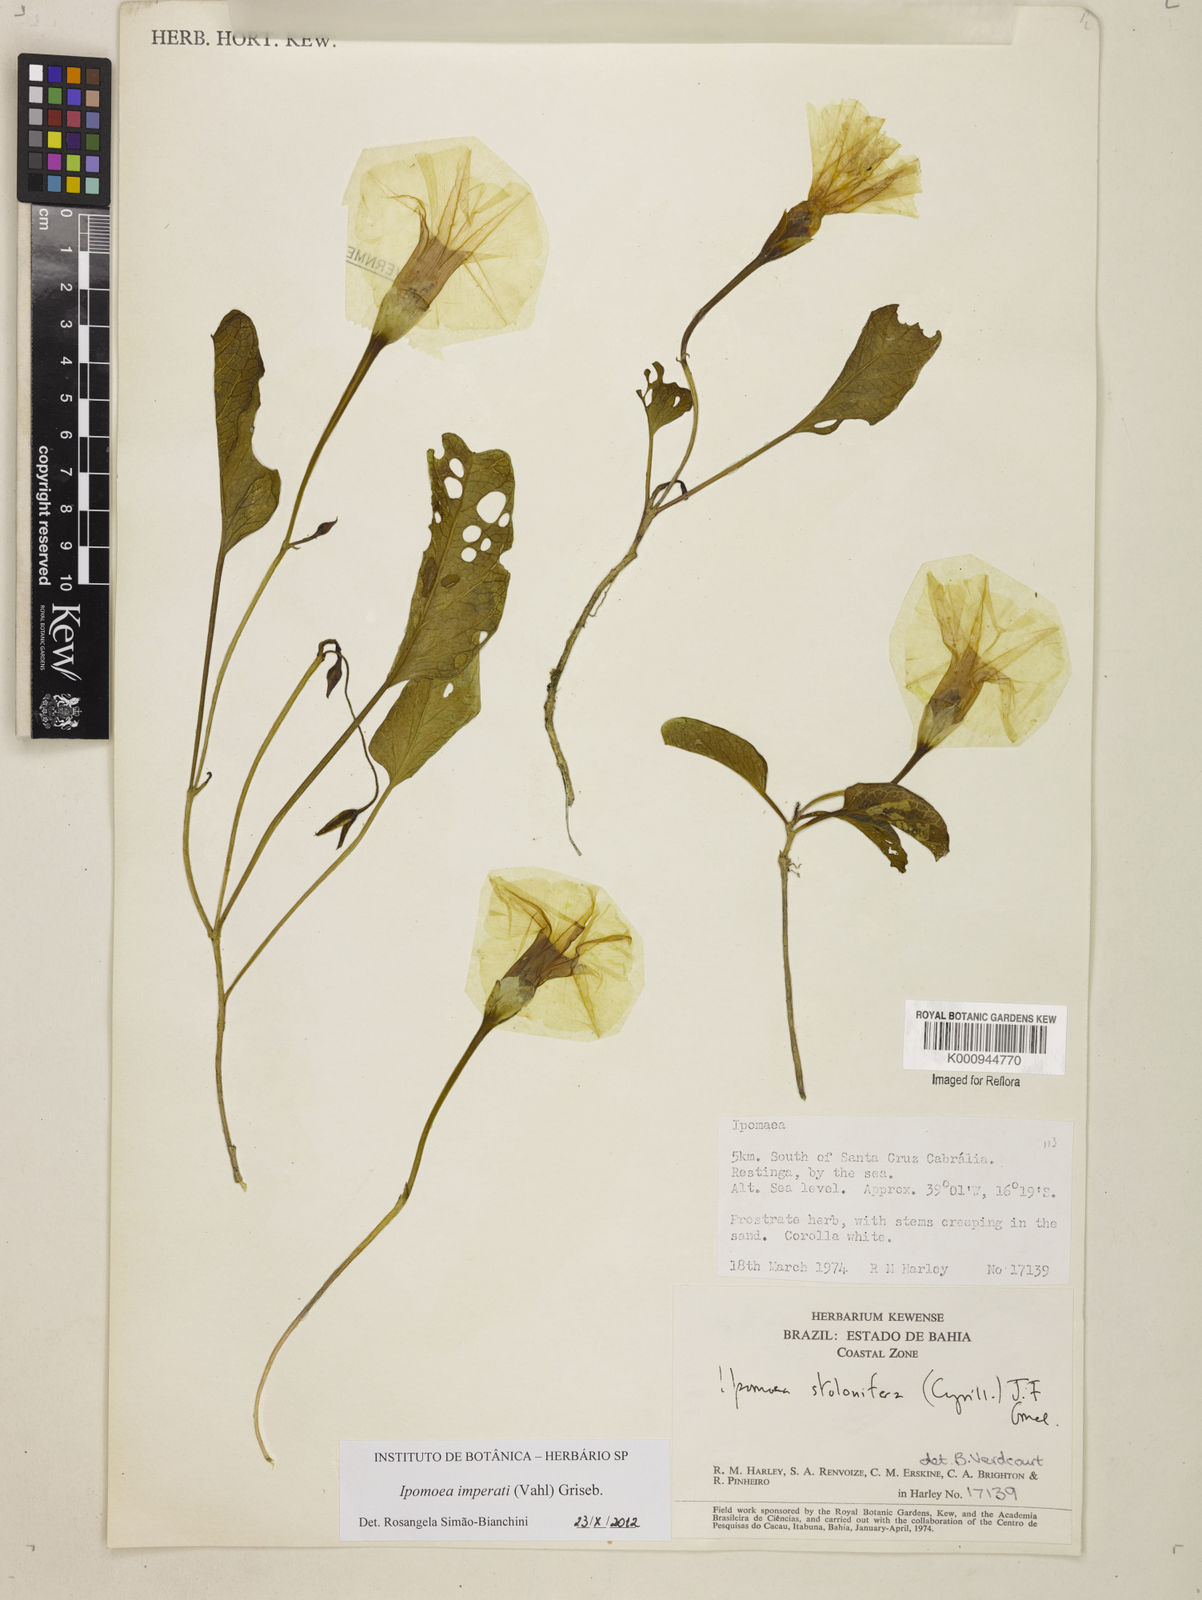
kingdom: Plantae
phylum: Tracheophyta
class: Magnoliopsida
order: Solanales
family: Convolvulaceae
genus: Ipomoea
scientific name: Ipomoea
